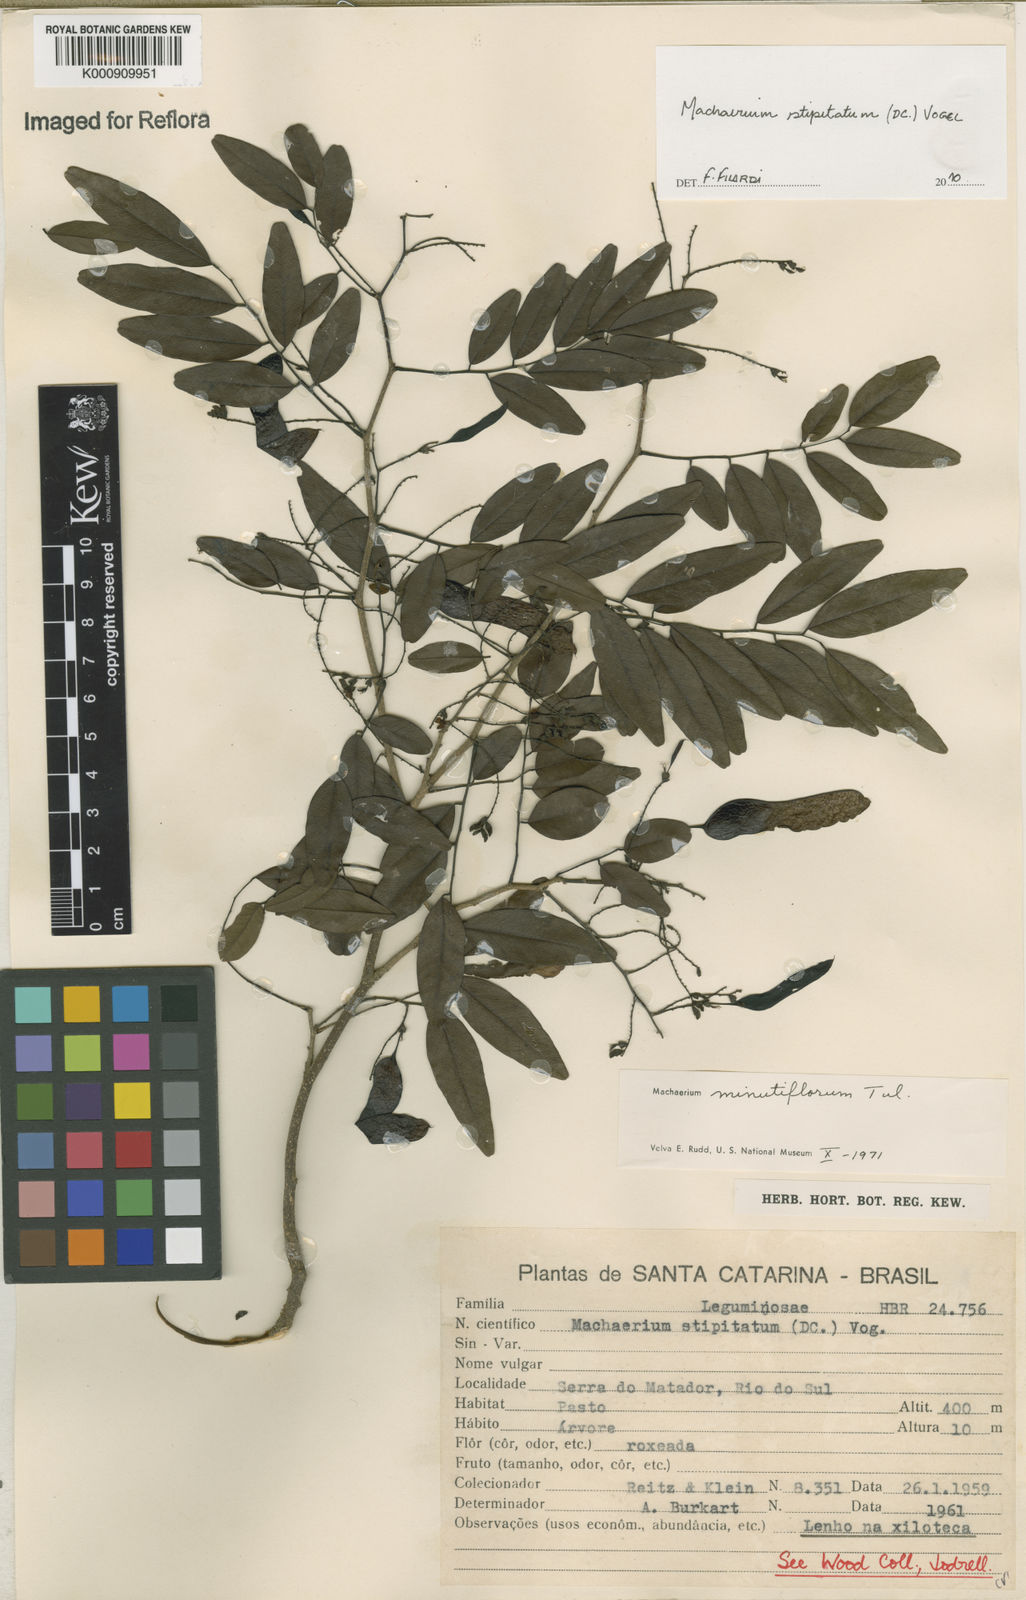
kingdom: Plantae
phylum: Tracheophyta
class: Magnoliopsida
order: Fabales
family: Fabaceae
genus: Machaerium
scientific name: Machaerium stipitatum
